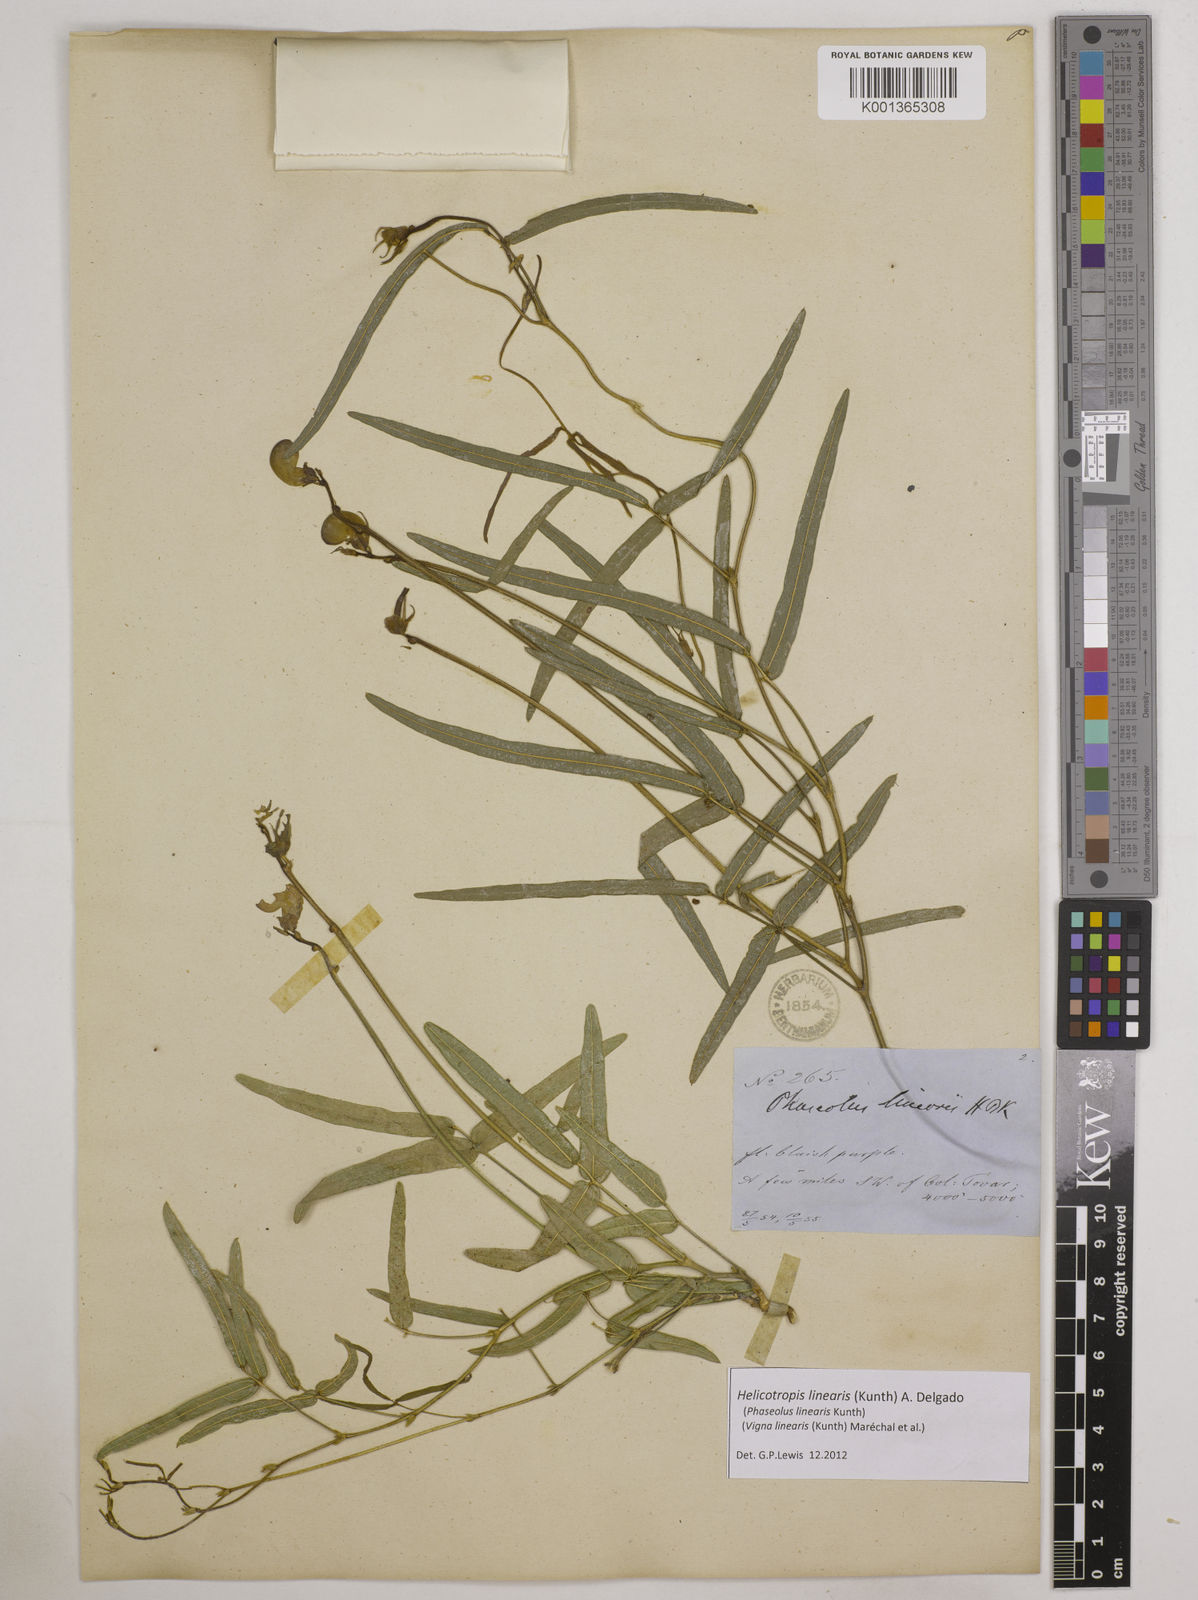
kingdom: Plantae
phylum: Tracheophyta
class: Magnoliopsida
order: Fabales
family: Fabaceae
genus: Helicotropis
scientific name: Helicotropis linearis
